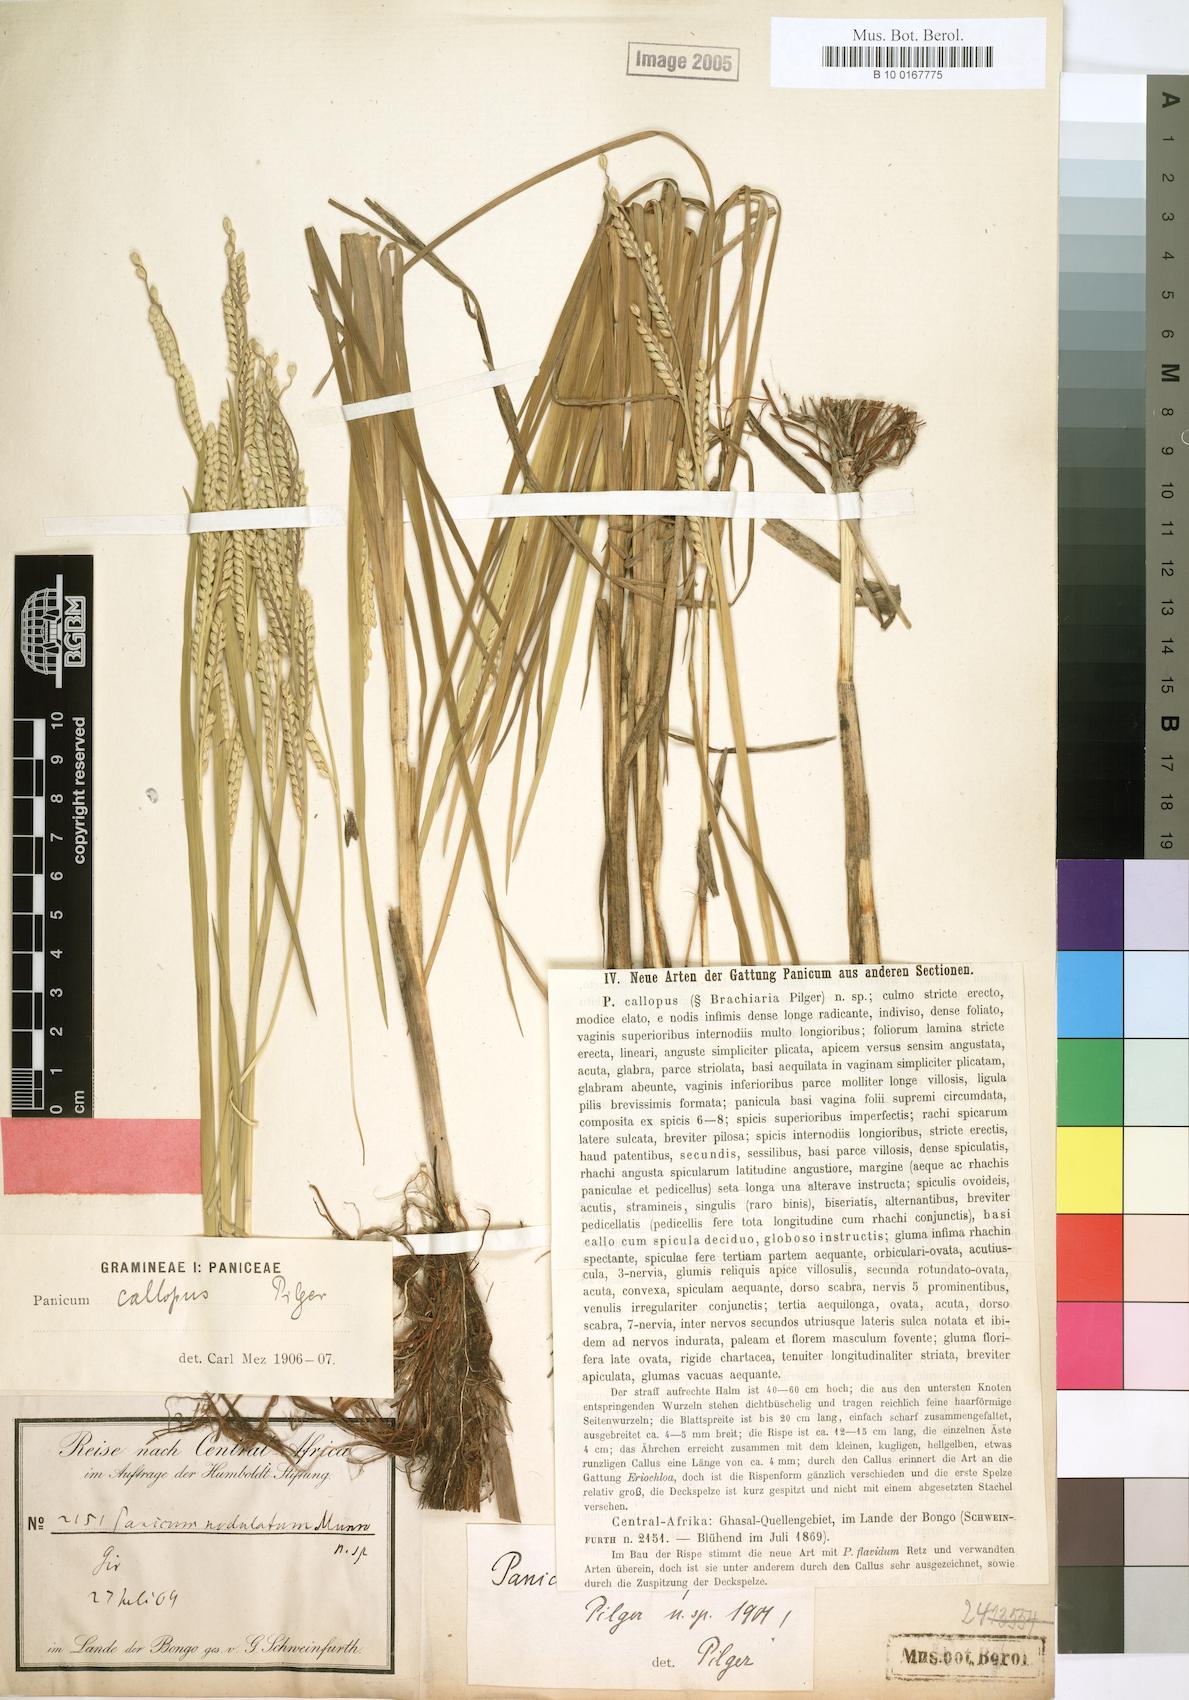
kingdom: Plantae
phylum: Tracheophyta
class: Liliopsida
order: Poales
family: Poaceae
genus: Echinochloa
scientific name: Echinochloa callopus
